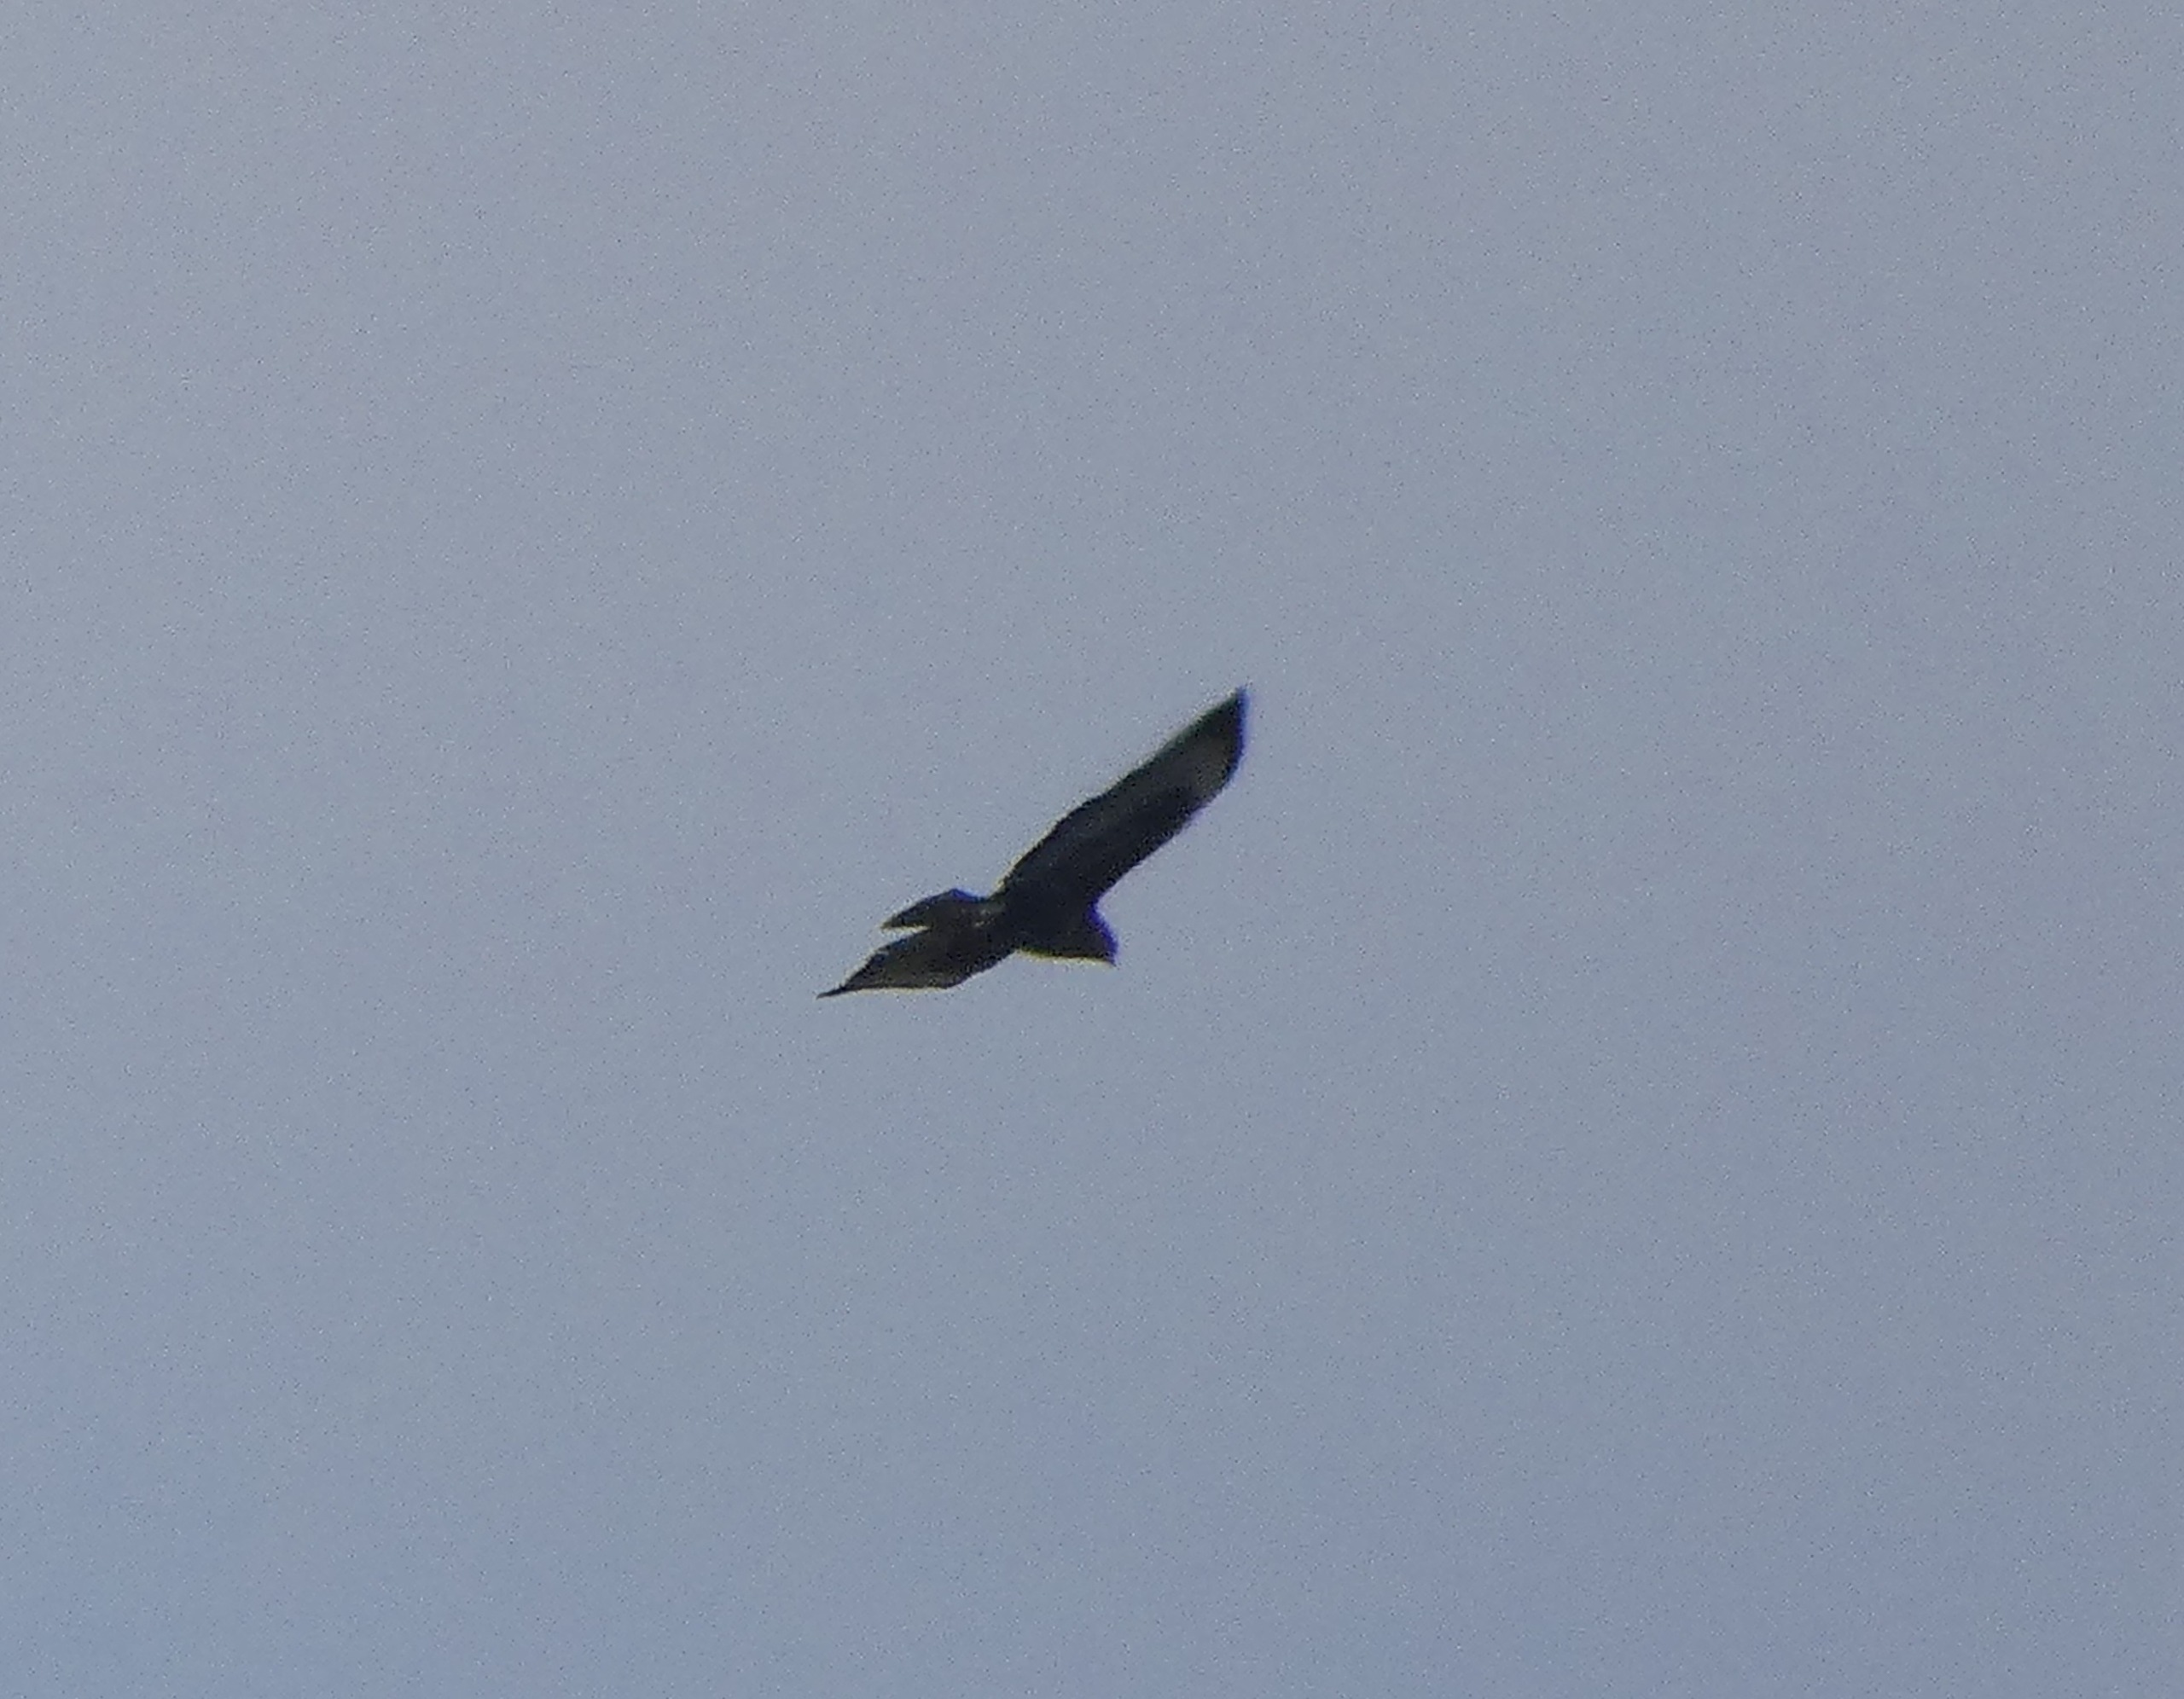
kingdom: Animalia
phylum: Chordata
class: Aves
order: Accipitriformes
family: Accipitridae
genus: Buteo
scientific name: Buteo buteo
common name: Musvåge
